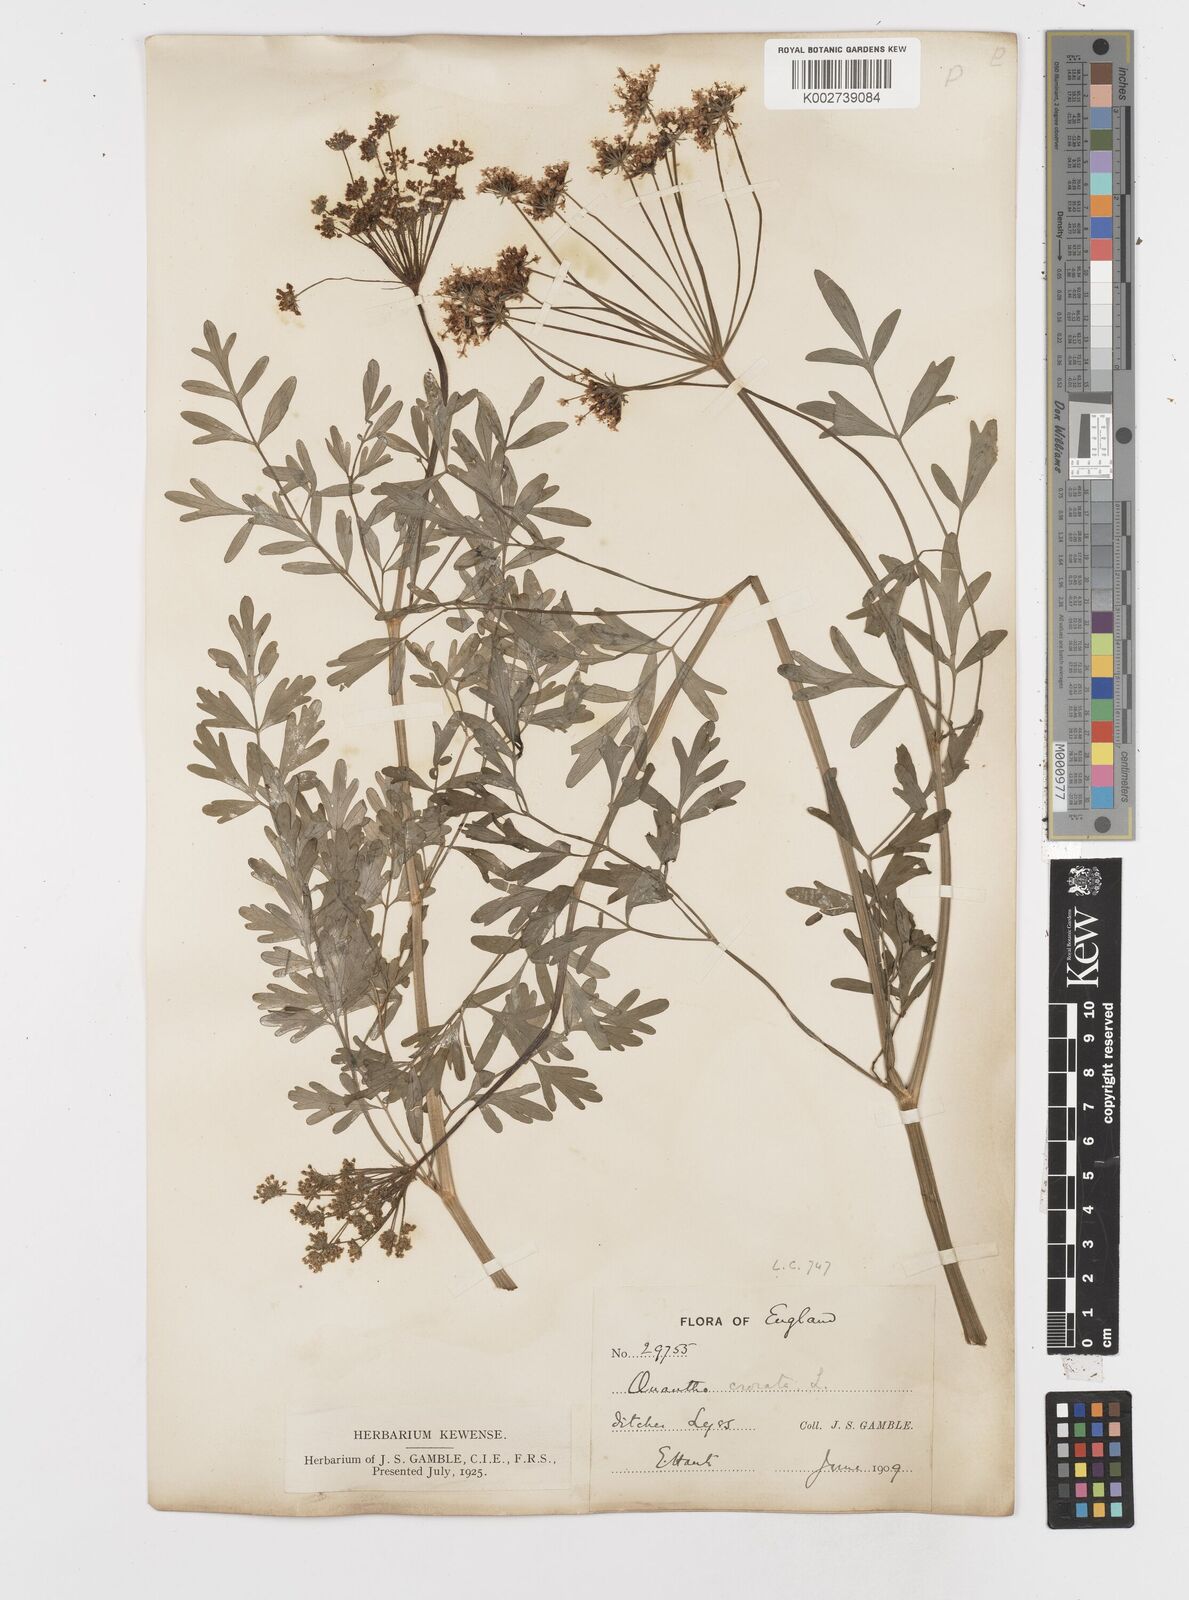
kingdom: Plantae
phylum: Tracheophyta
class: Magnoliopsida
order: Apiales
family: Apiaceae
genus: Oenanthe
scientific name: Oenanthe crocata
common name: Hemlock water-dropwort
